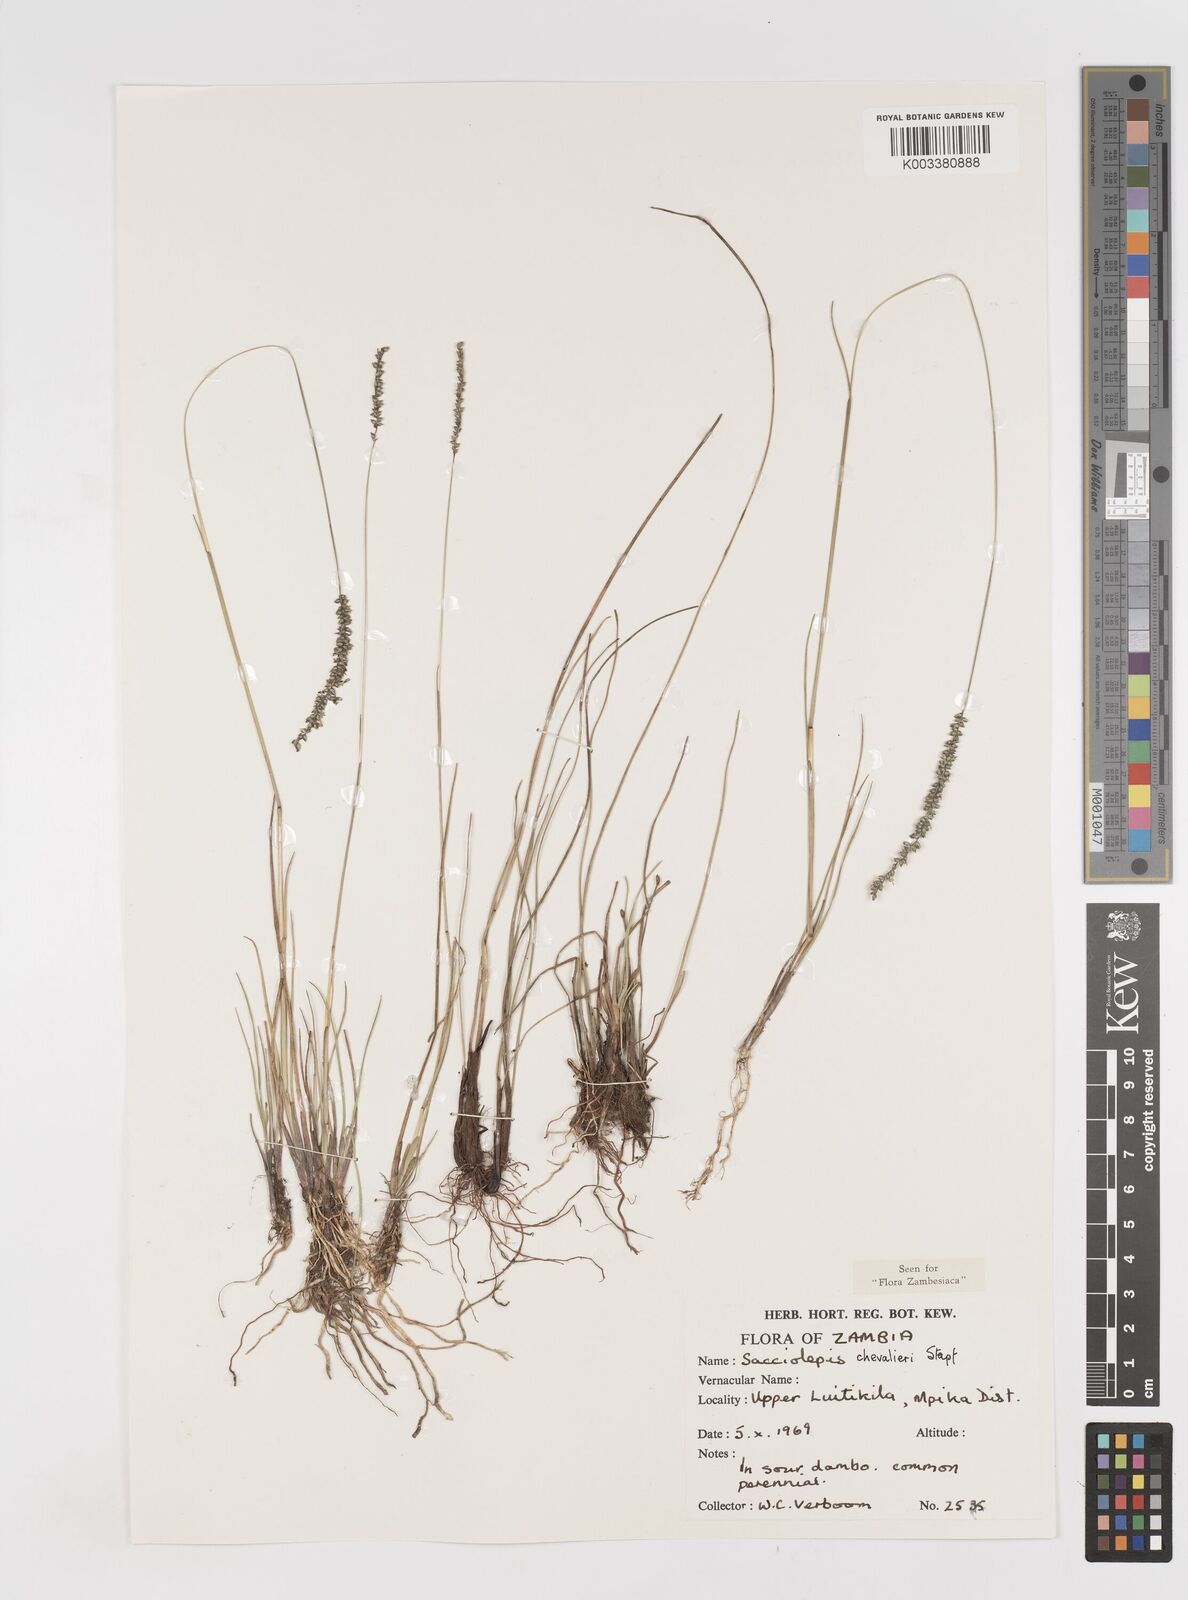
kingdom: Plantae
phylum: Tracheophyta
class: Liliopsida
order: Poales
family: Poaceae
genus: Sacciolepis
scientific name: Sacciolepis chevalieri
